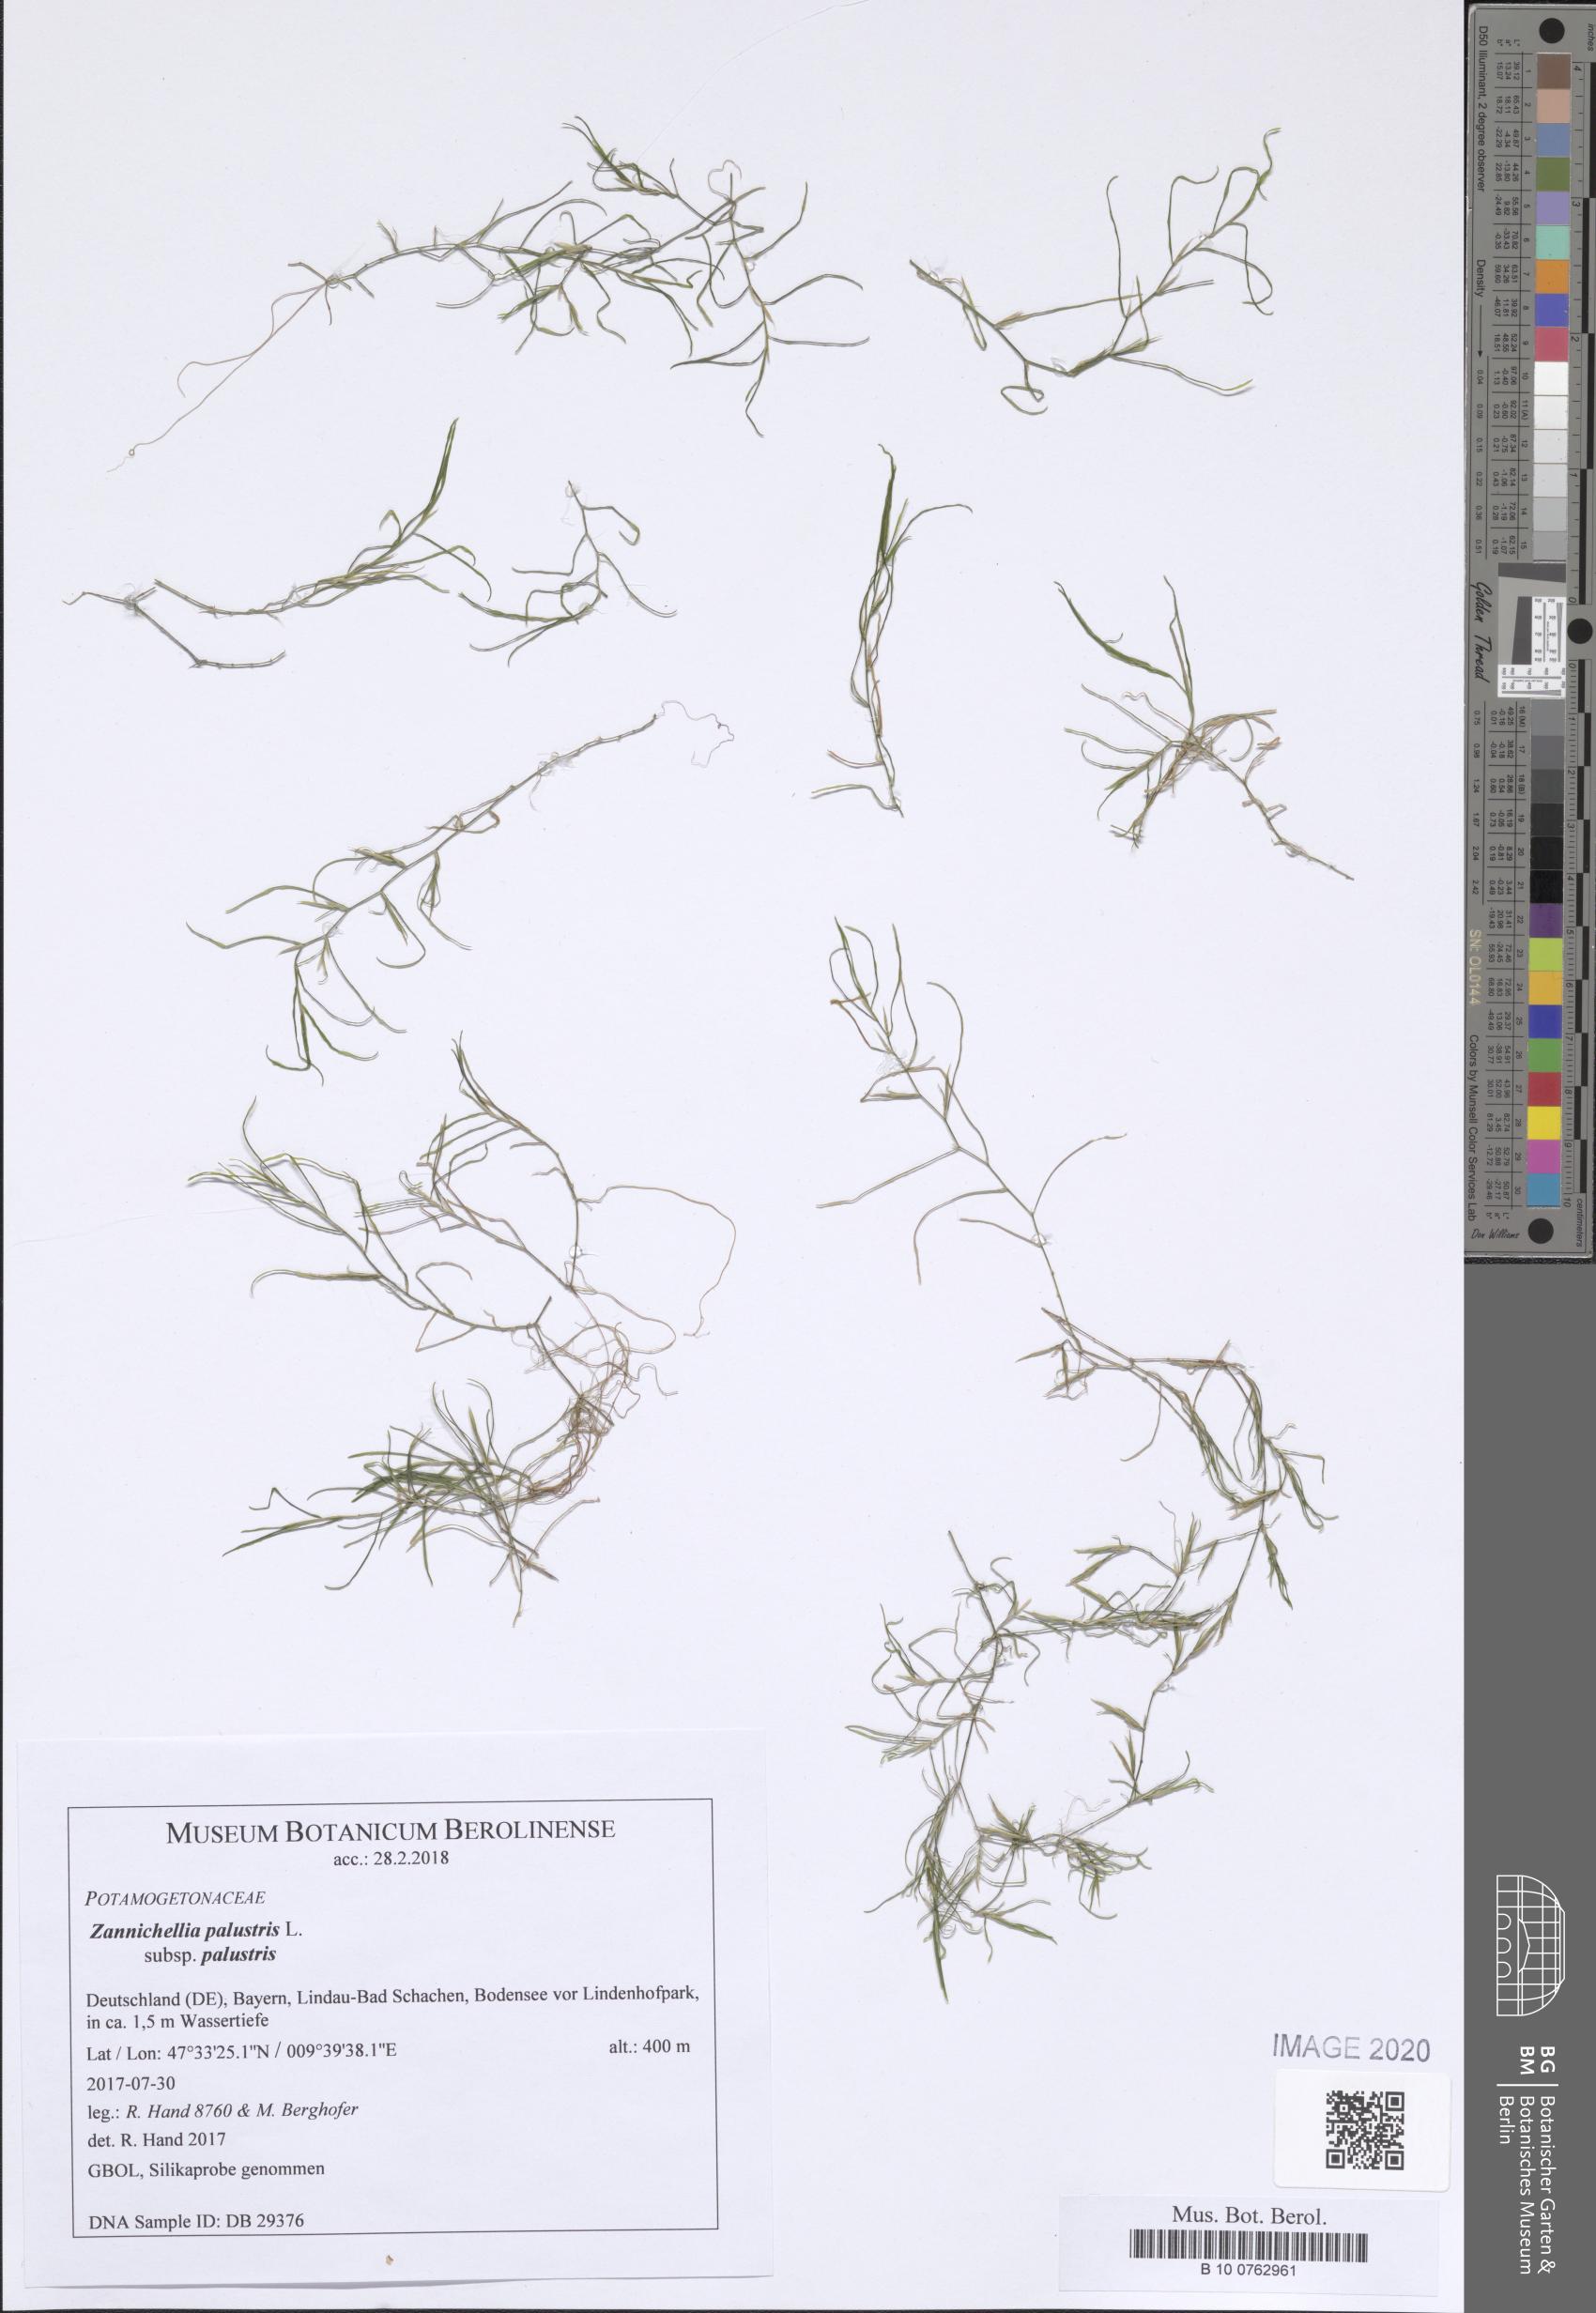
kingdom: Plantae
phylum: Tracheophyta
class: Liliopsida
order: Alismatales
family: Potamogetonaceae
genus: Zannichellia
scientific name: Zannichellia palustris
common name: Horned pondweed
